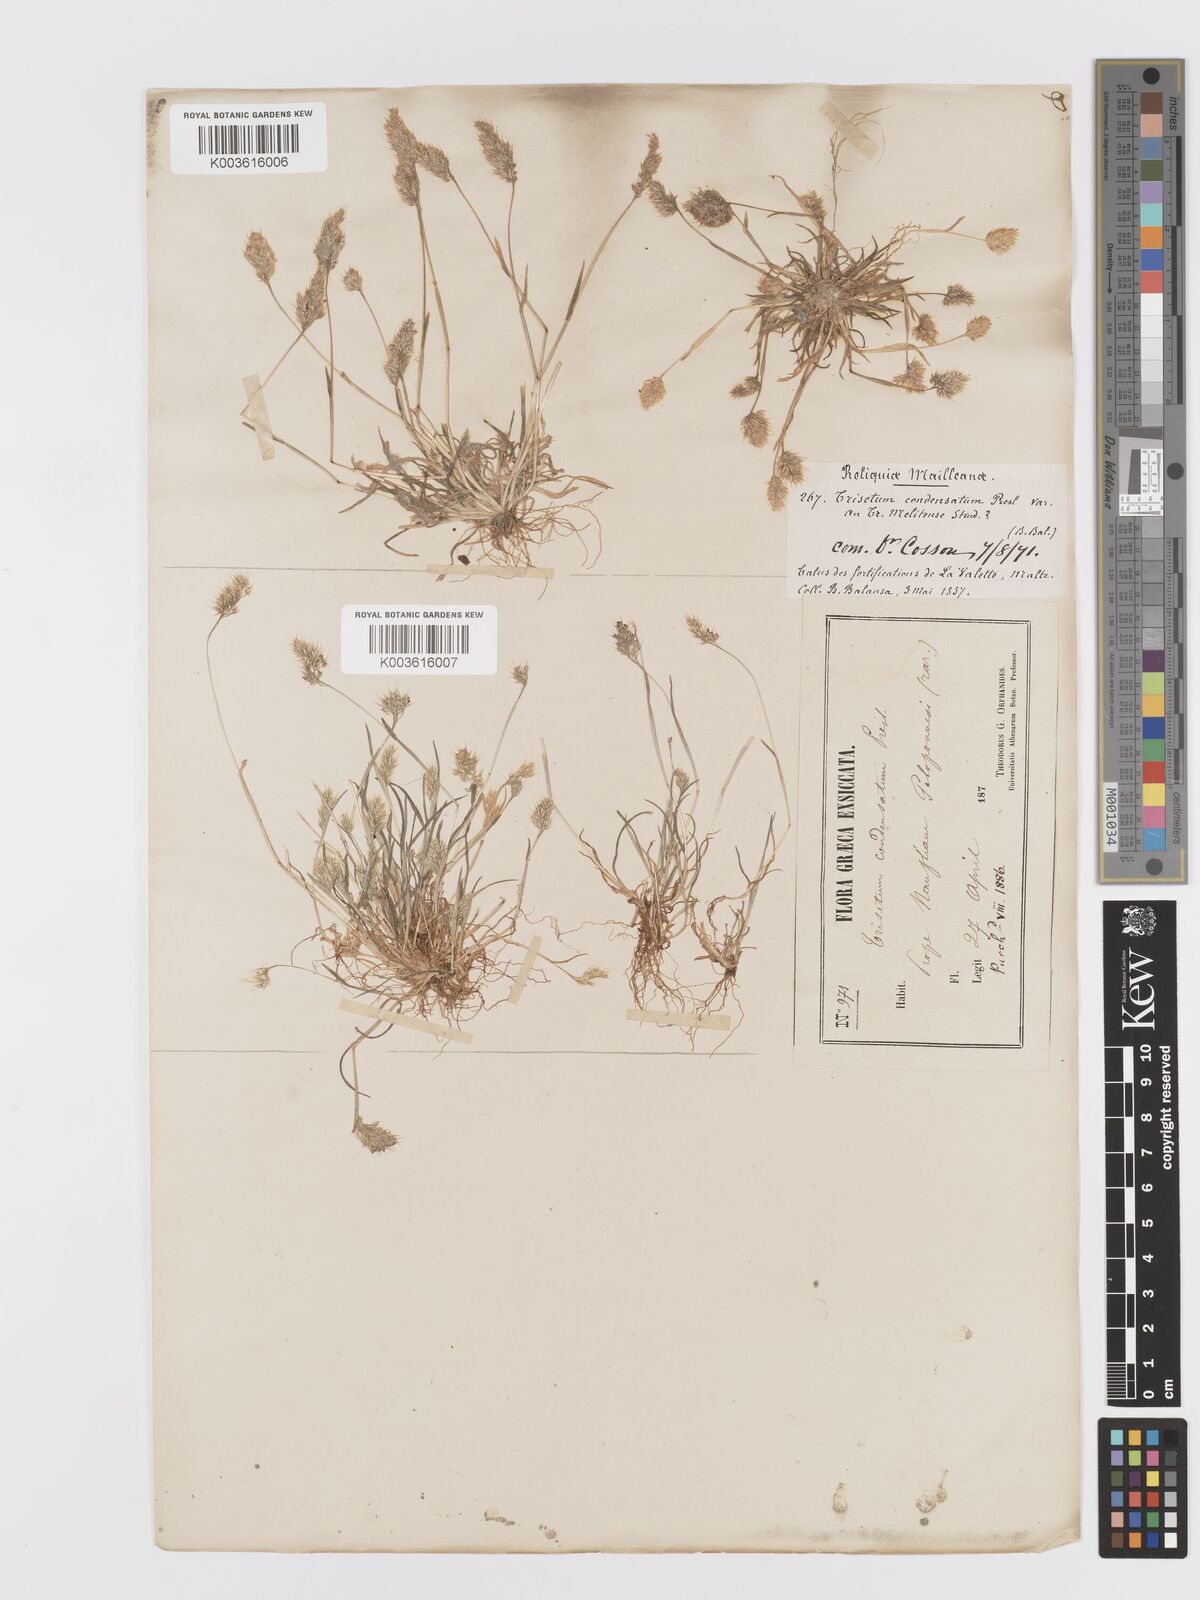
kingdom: Plantae
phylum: Tracheophyta
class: Liliopsida
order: Poales
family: Poaceae
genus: Trisetaria
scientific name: Trisetaria aurea
